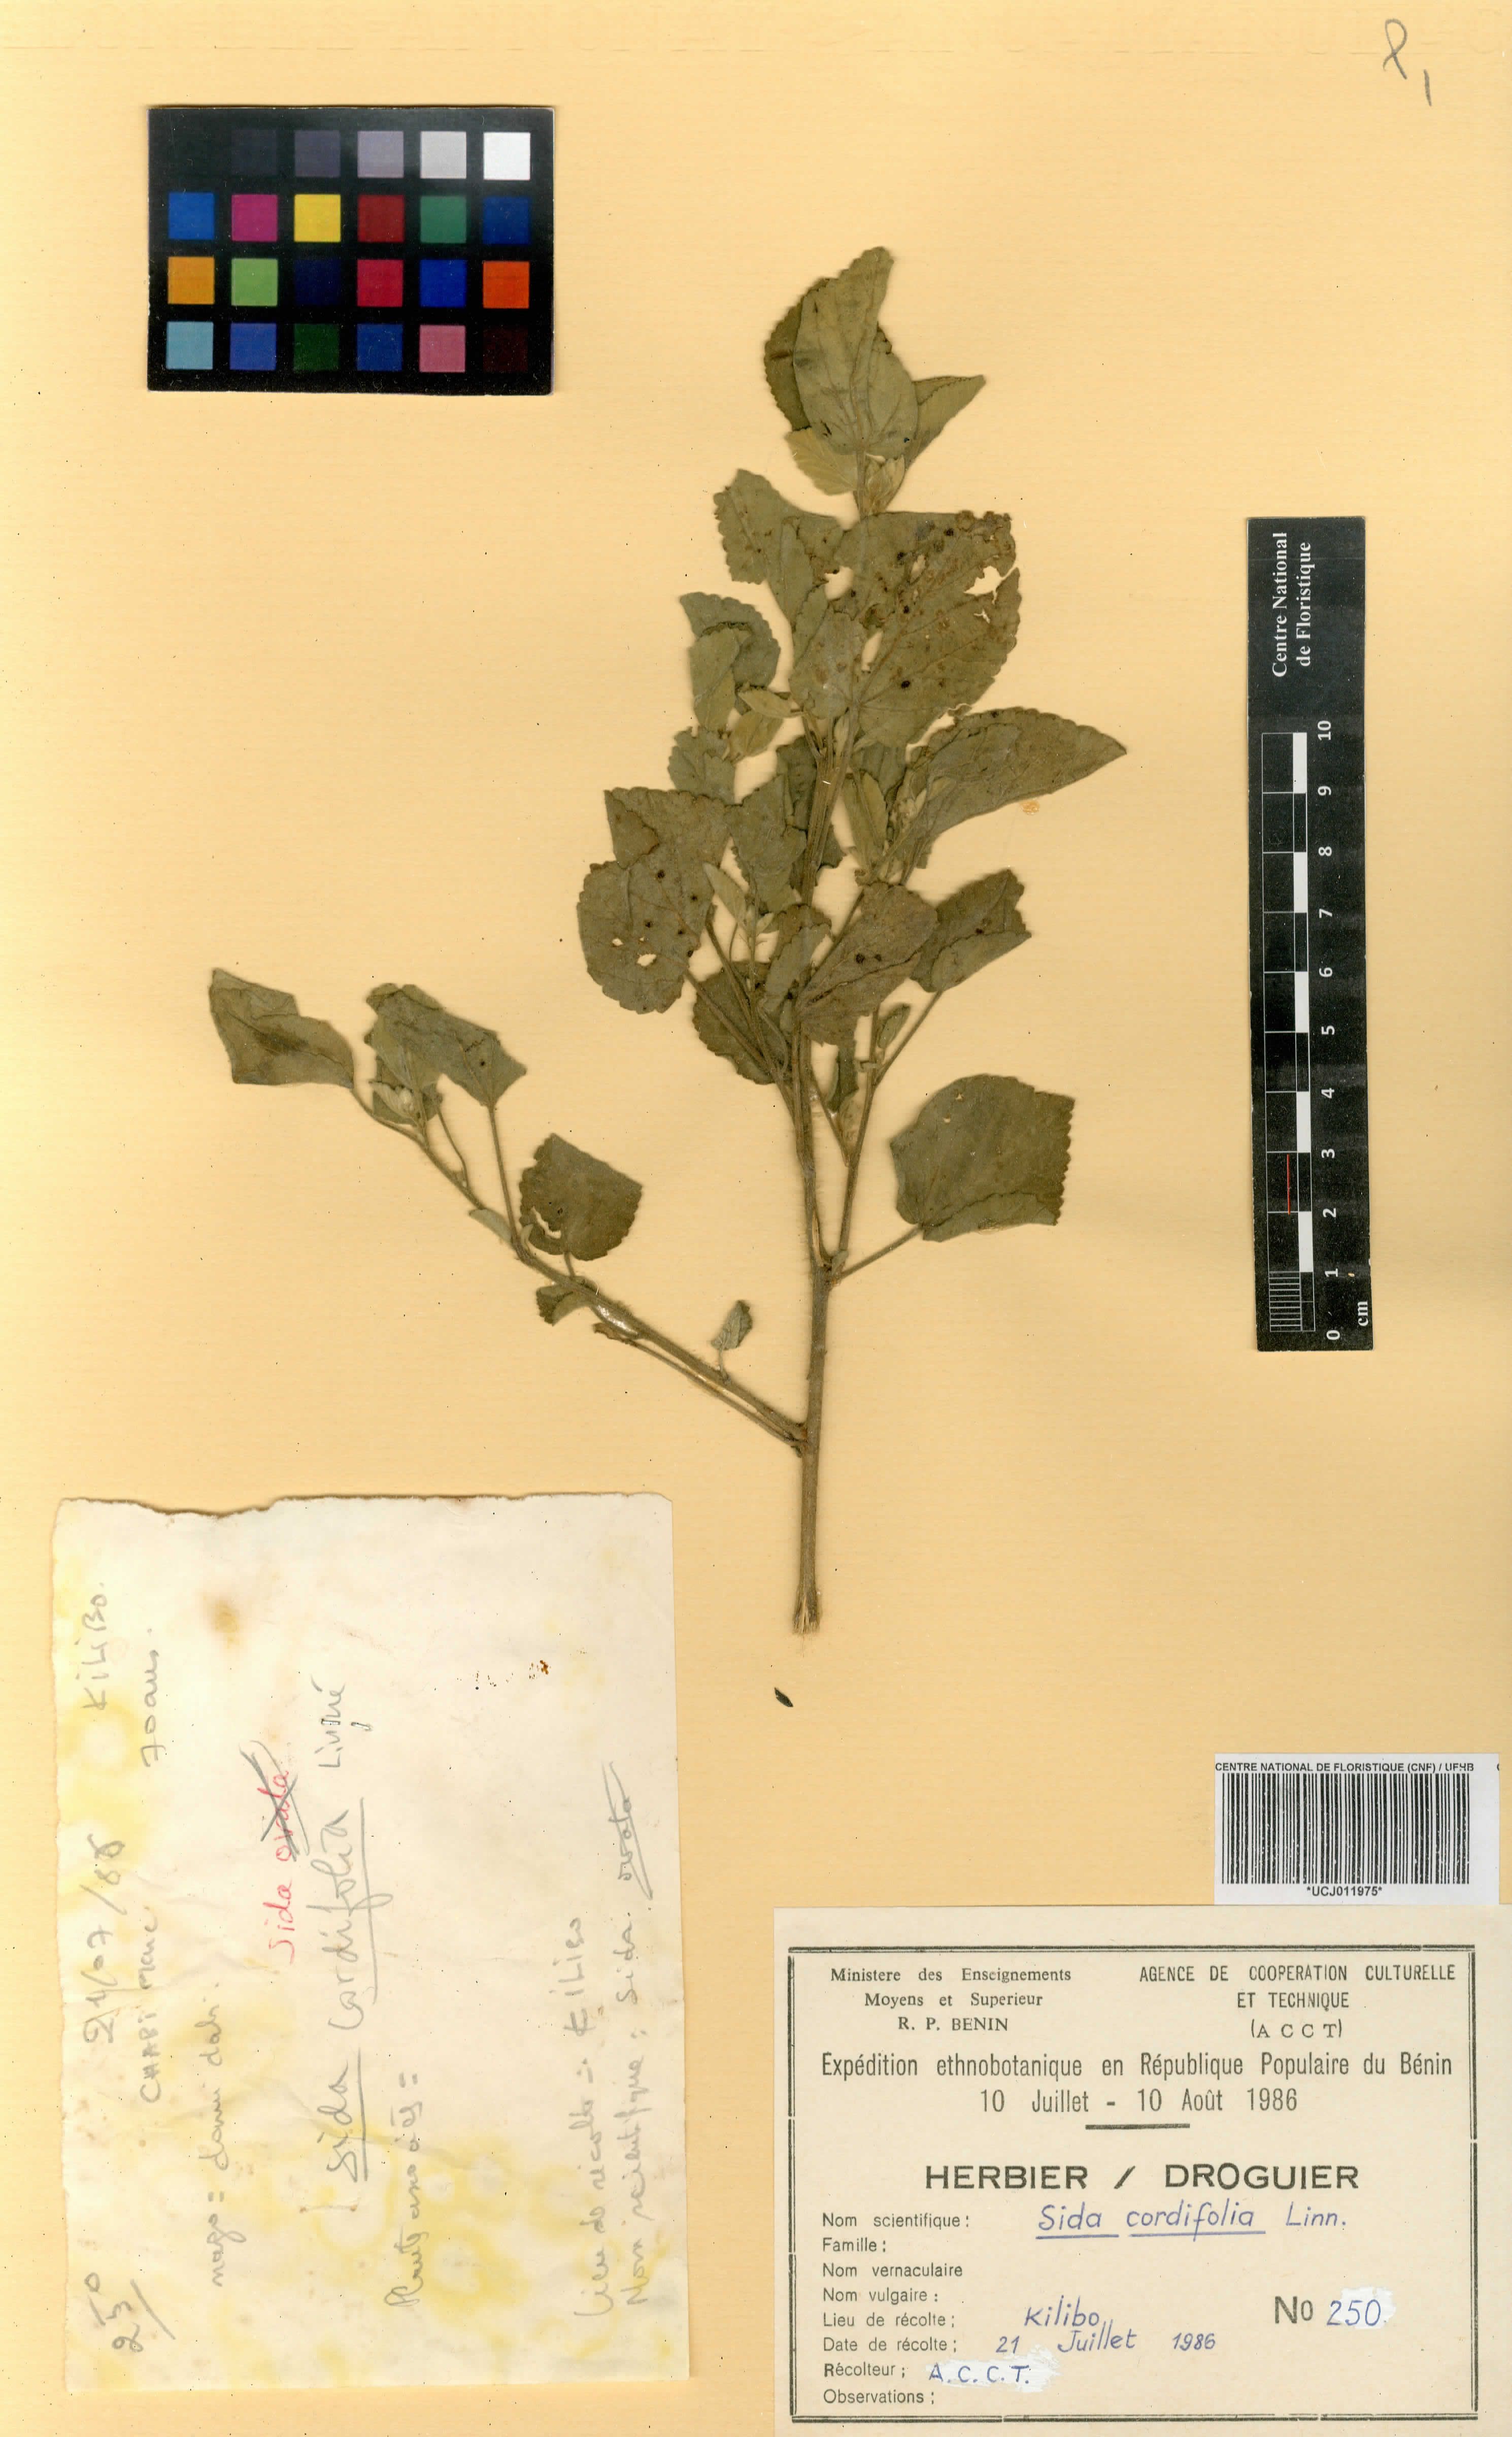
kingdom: Plantae
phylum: Tracheophyta
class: Magnoliopsida
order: Malvales
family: Malvaceae
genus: Sida
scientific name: Sida cordifolia
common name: Ilima
